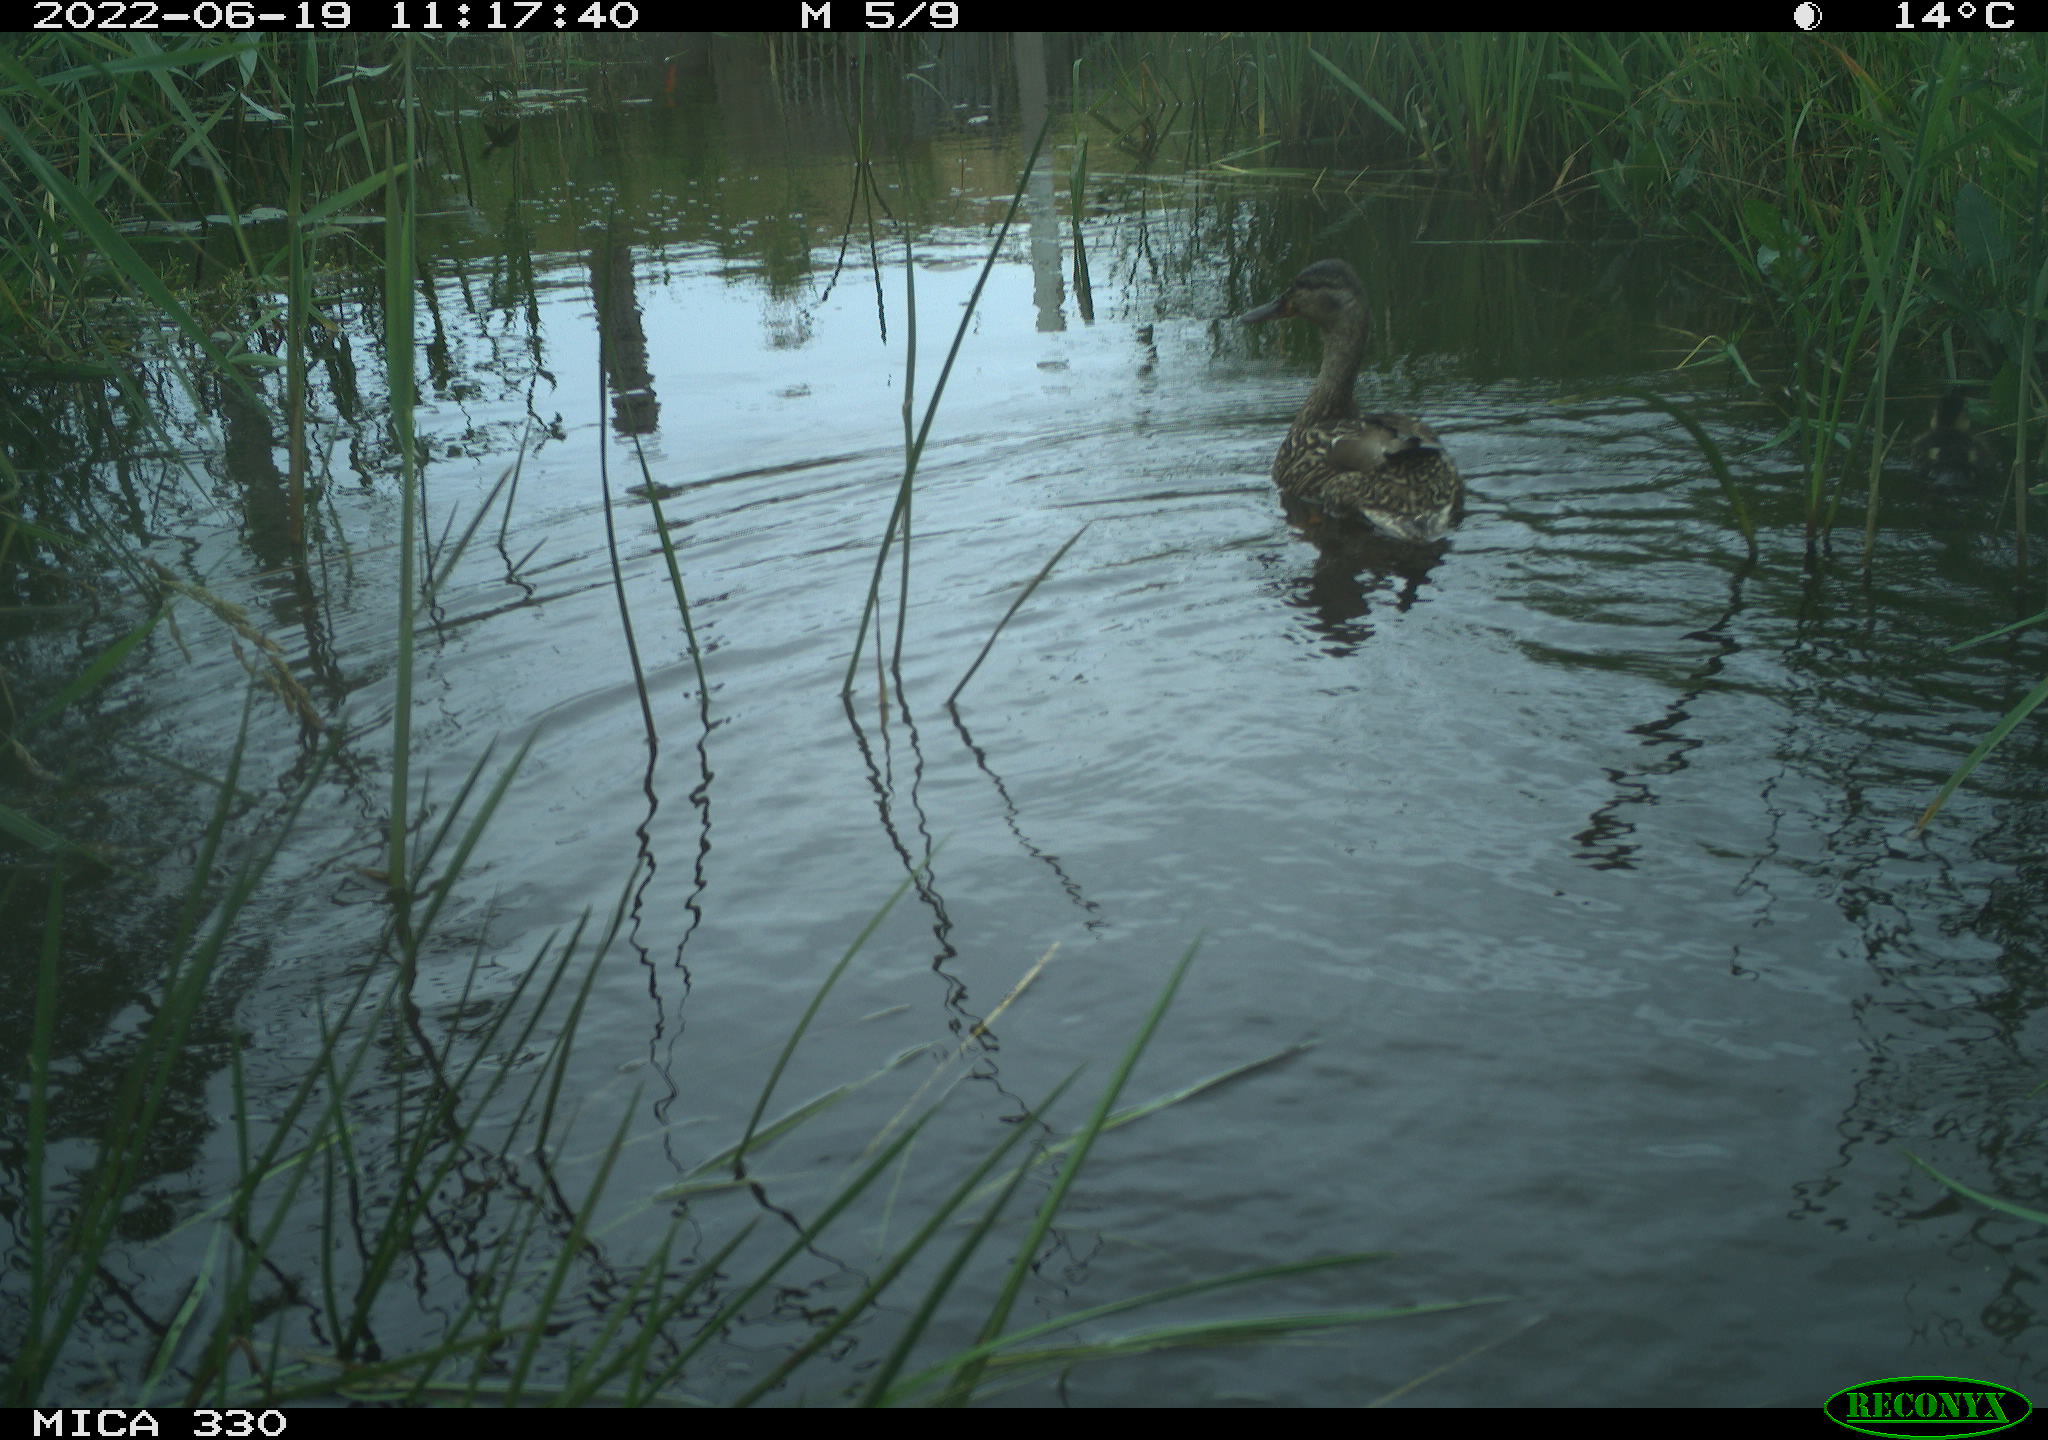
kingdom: Animalia
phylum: Chordata
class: Aves
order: Anseriformes
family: Anatidae
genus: Mareca
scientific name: Mareca strepera
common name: Gadwall
